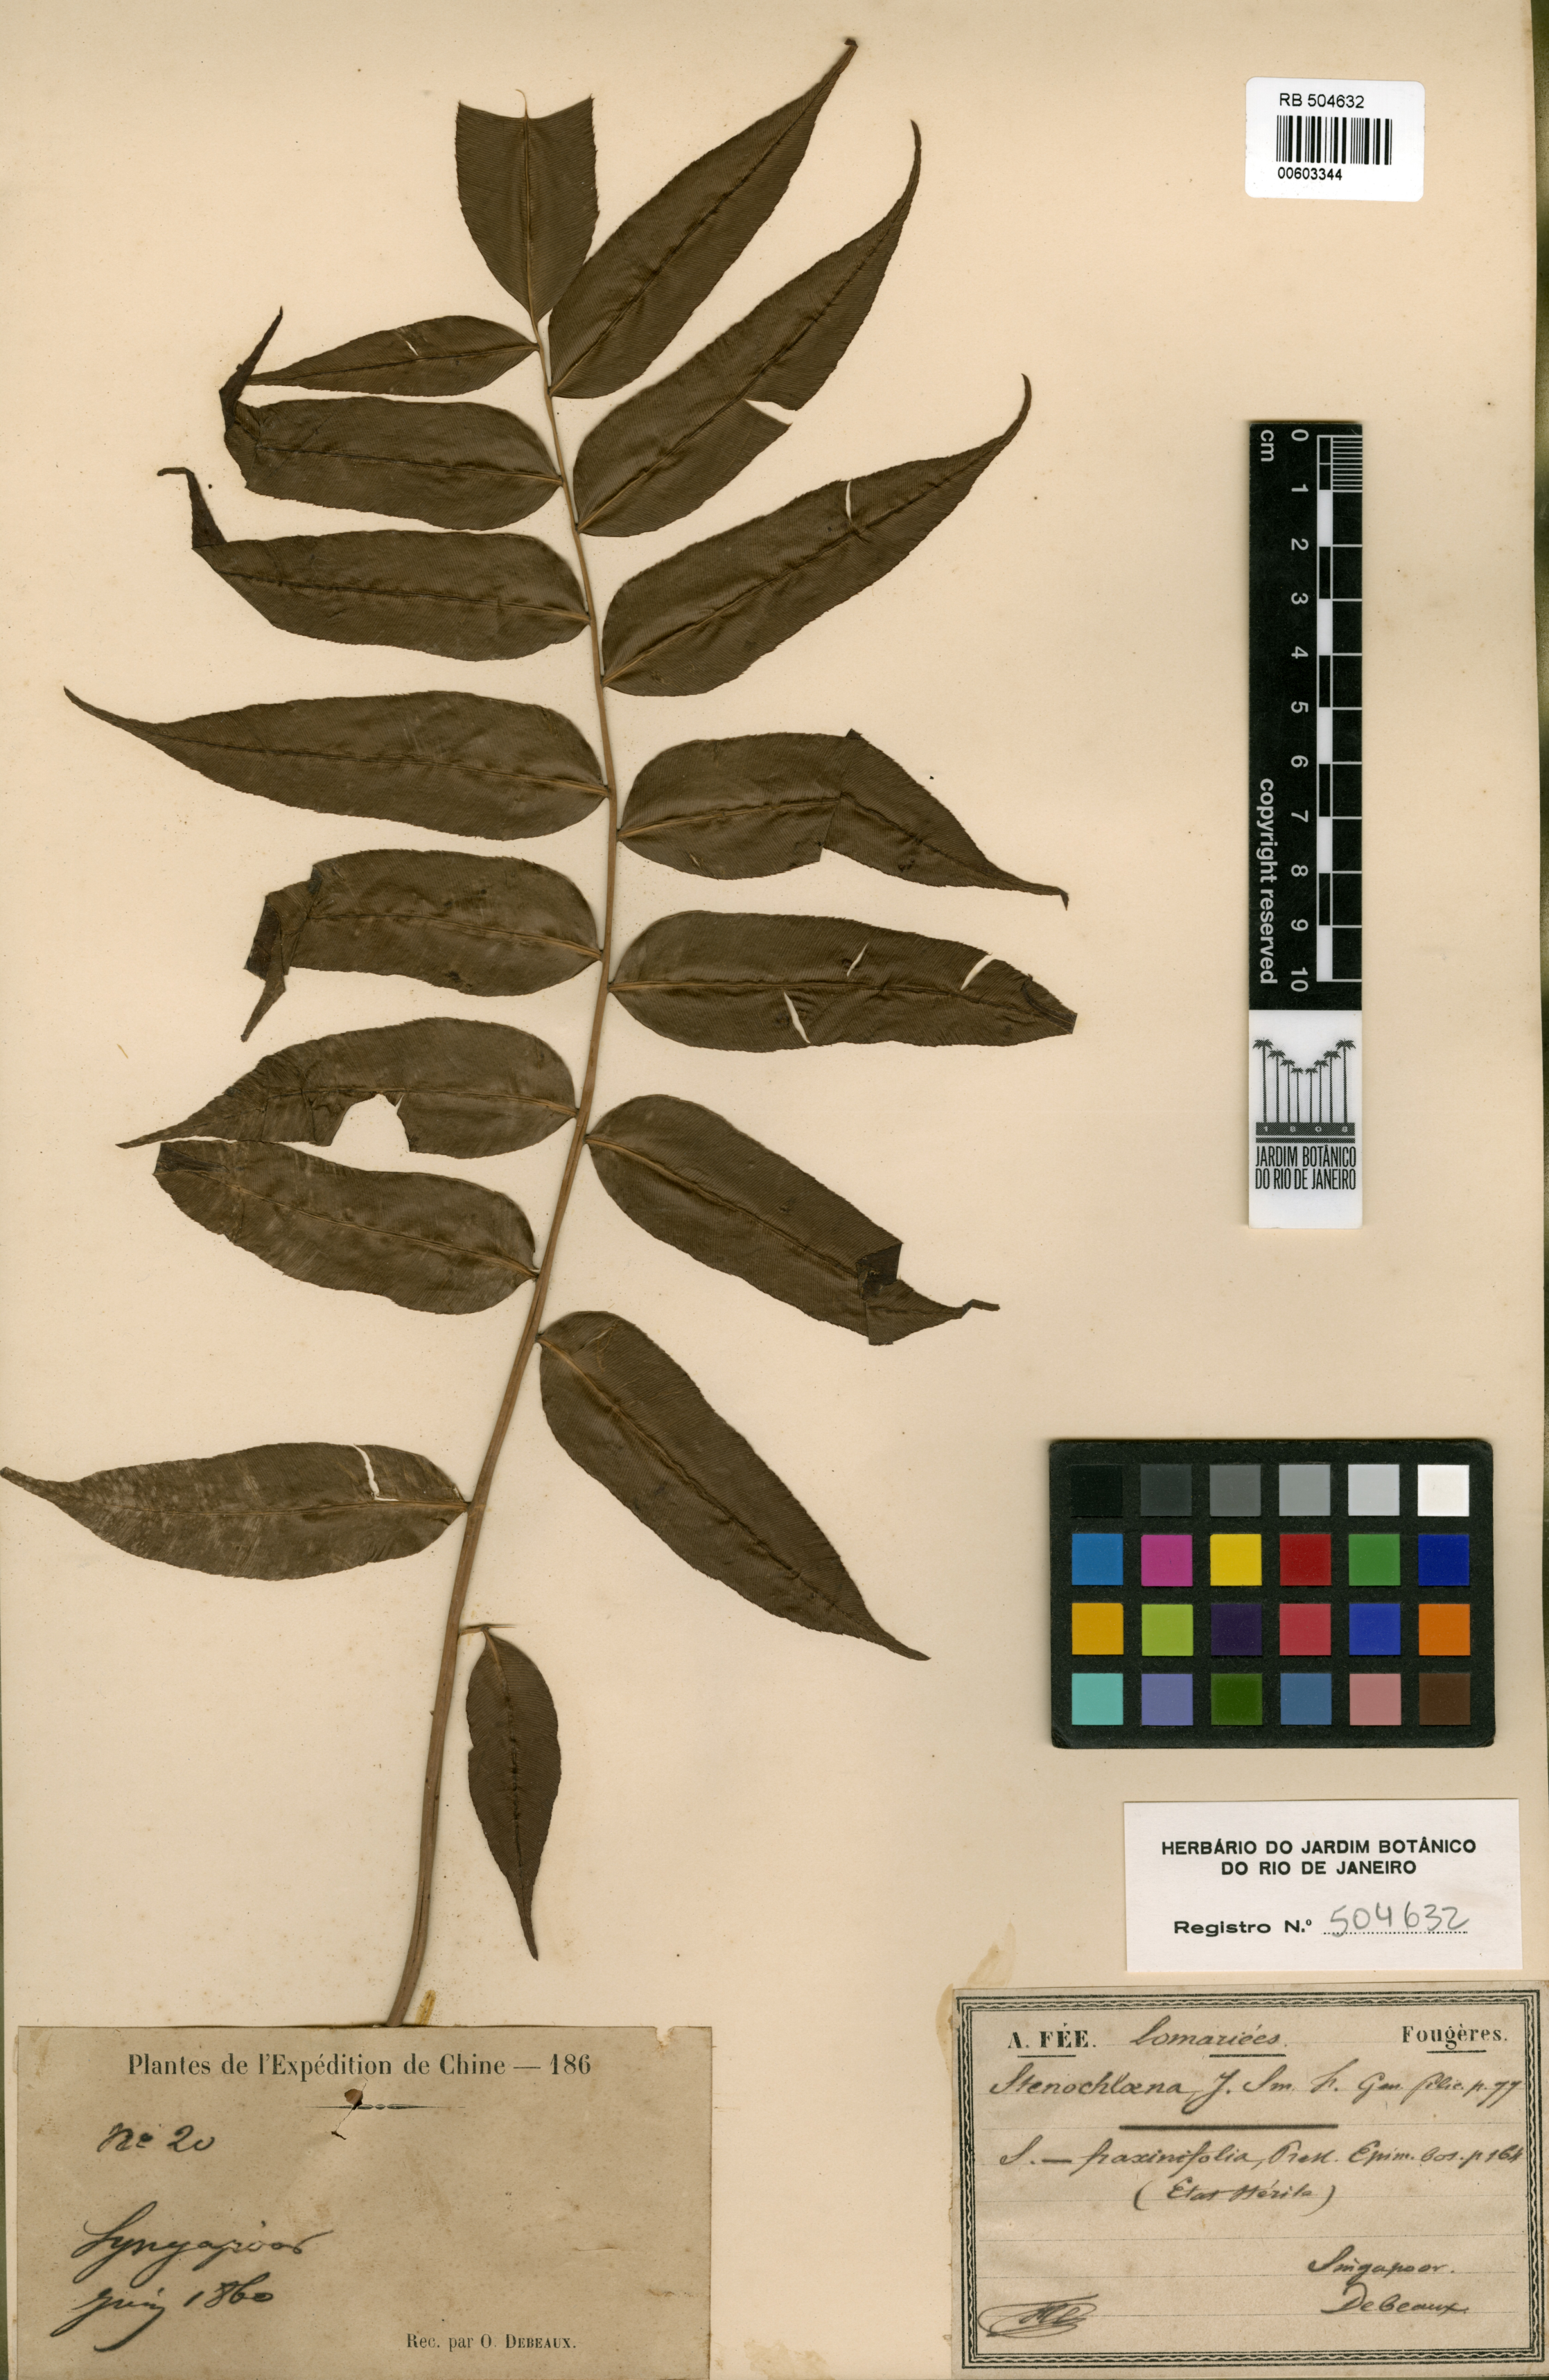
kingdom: Plantae
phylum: Tracheophyta
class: Polypodiopsida
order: Polypodiales
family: Blechnaceae
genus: Stenochlaena
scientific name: Stenochlaena palustris
